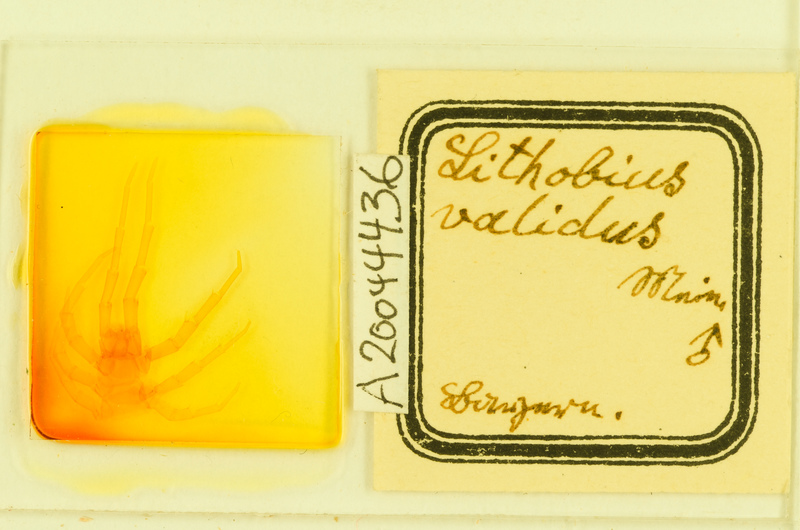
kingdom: Animalia
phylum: Arthropoda
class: Chilopoda
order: Lithobiomorpha
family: Lithobiidae
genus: Lithobius
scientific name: Lithobius punctulatus
